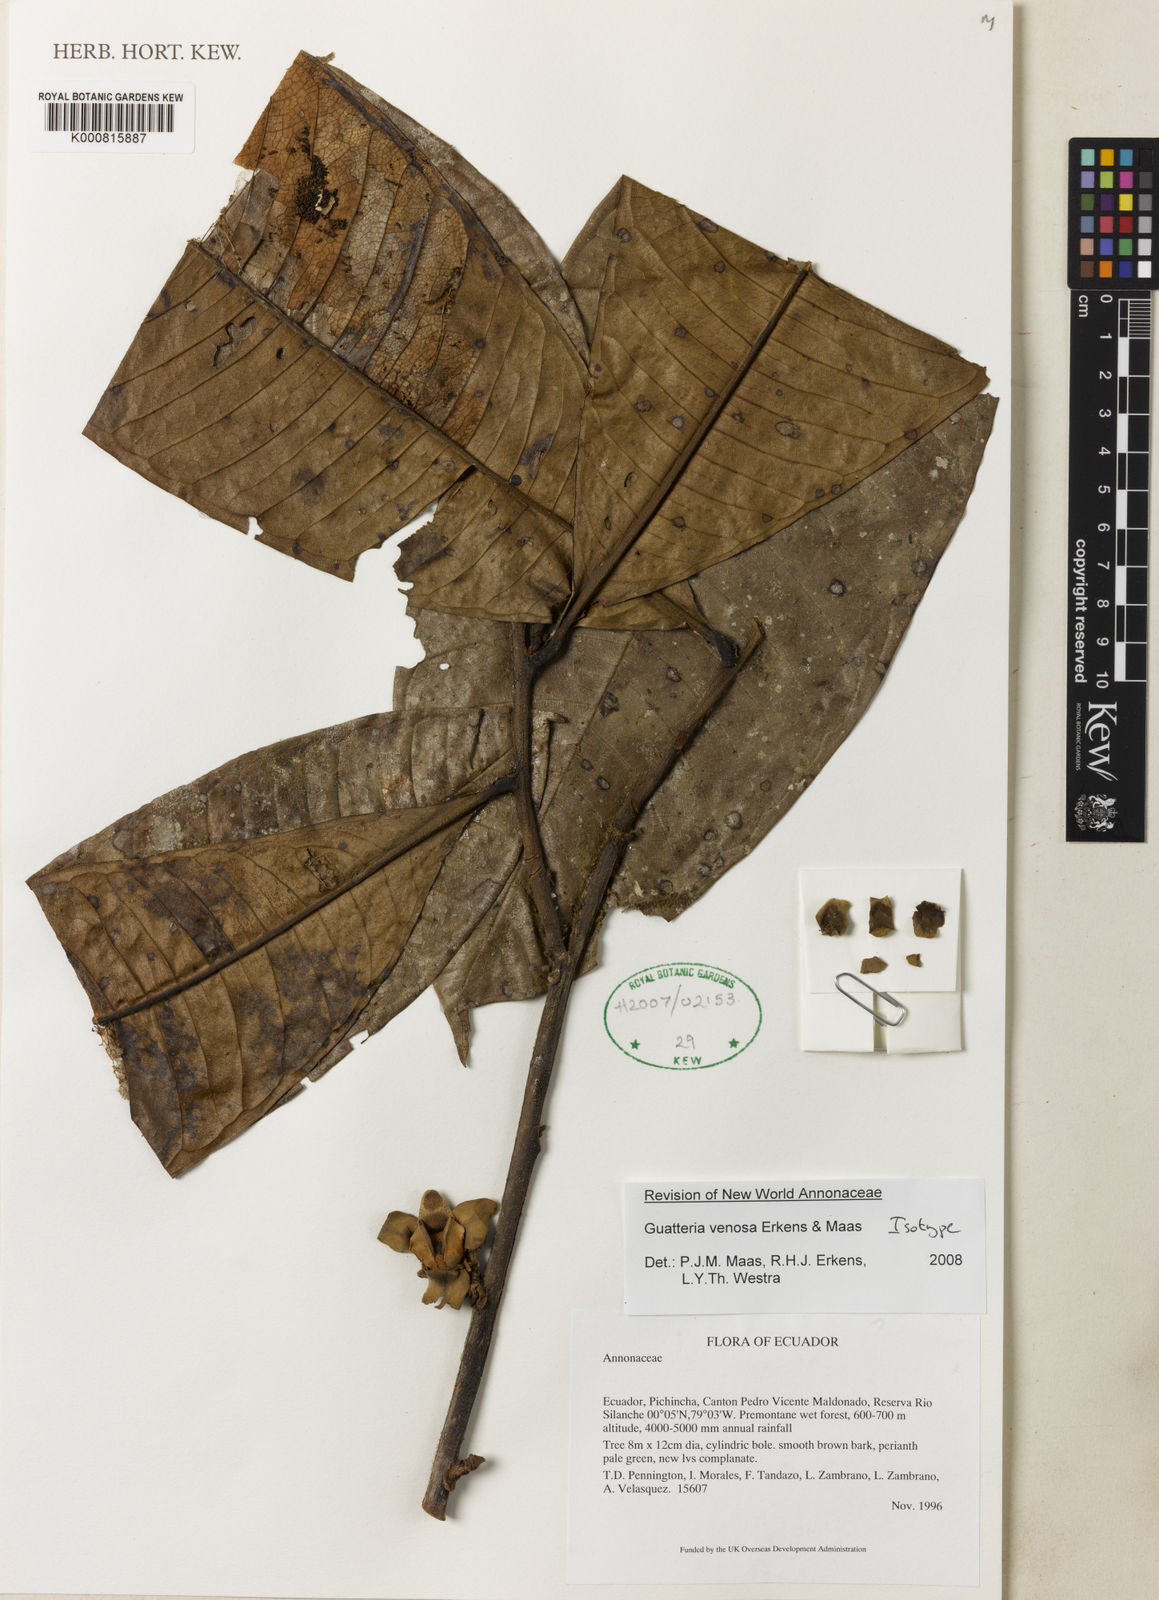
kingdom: Plantae
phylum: Tracheophyta
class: Magnoliopsida
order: Magnoliales
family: Annonaceae
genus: Guatteria
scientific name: Guatteria venosa
